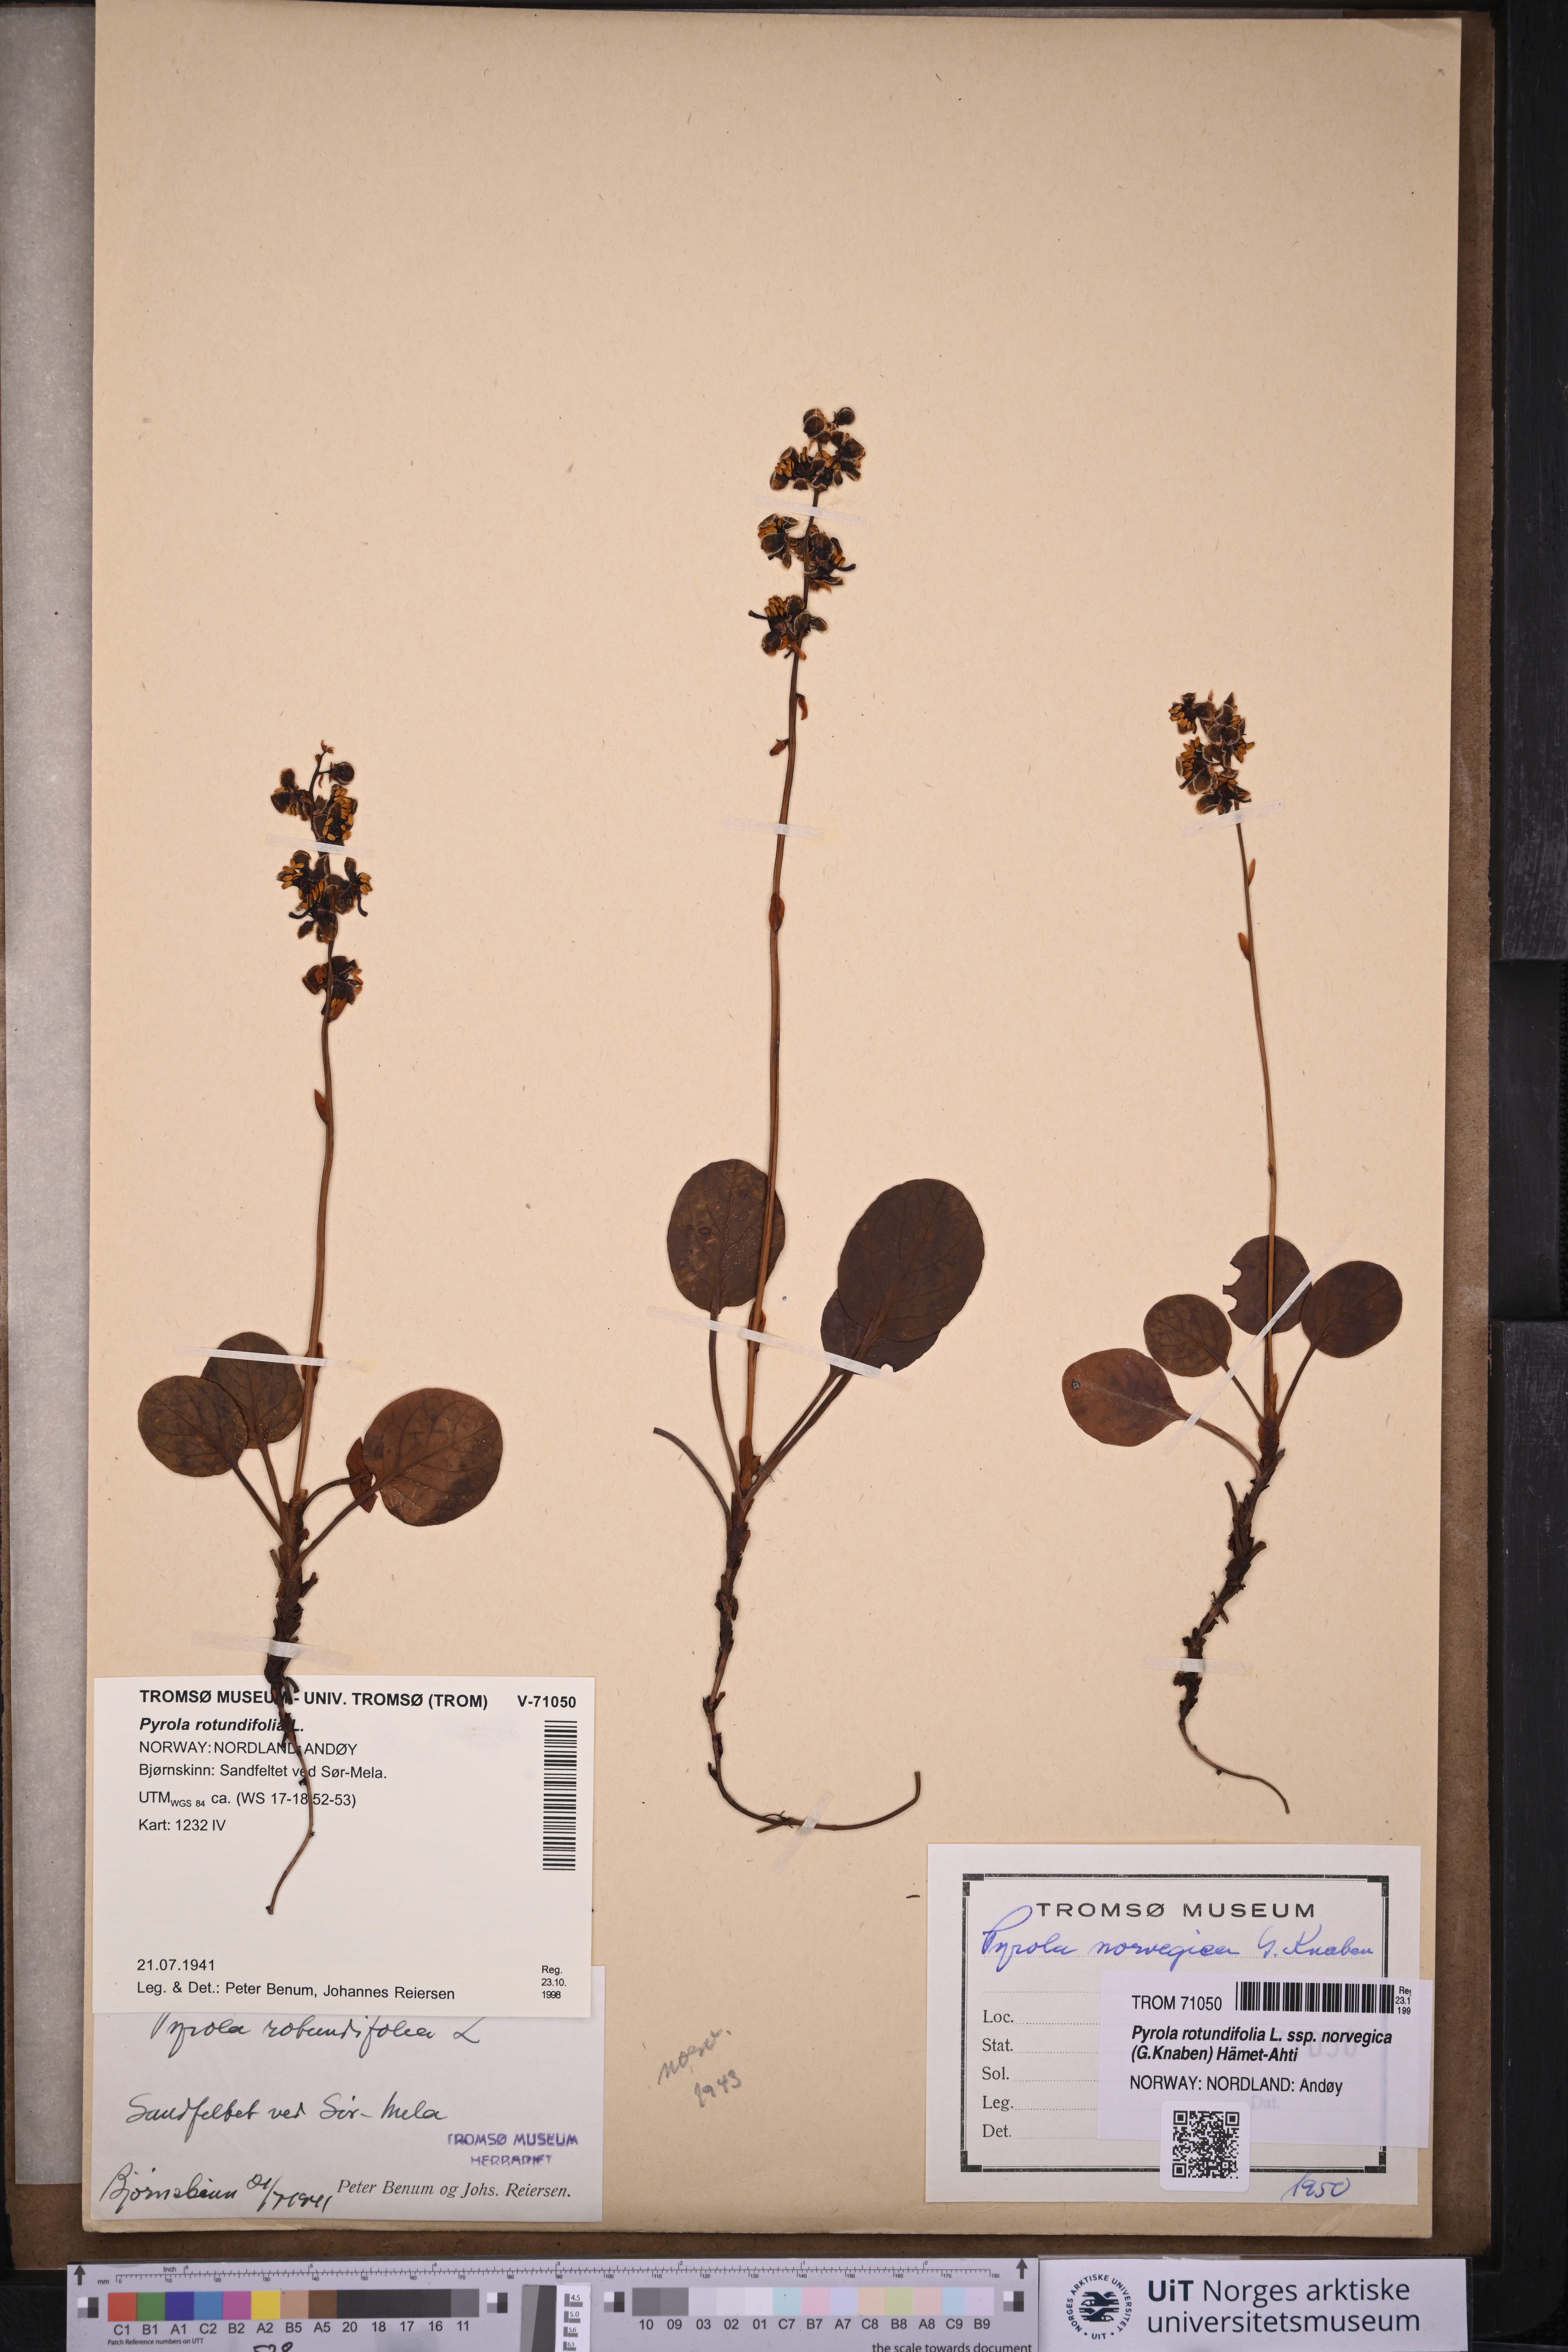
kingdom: Plantae
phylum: Tracheophyta
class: Magnoliopsida
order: Ericales
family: Ericaceae
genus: Pyrola
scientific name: Pyrola rotundifolia
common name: Round-leaved wintergreen
